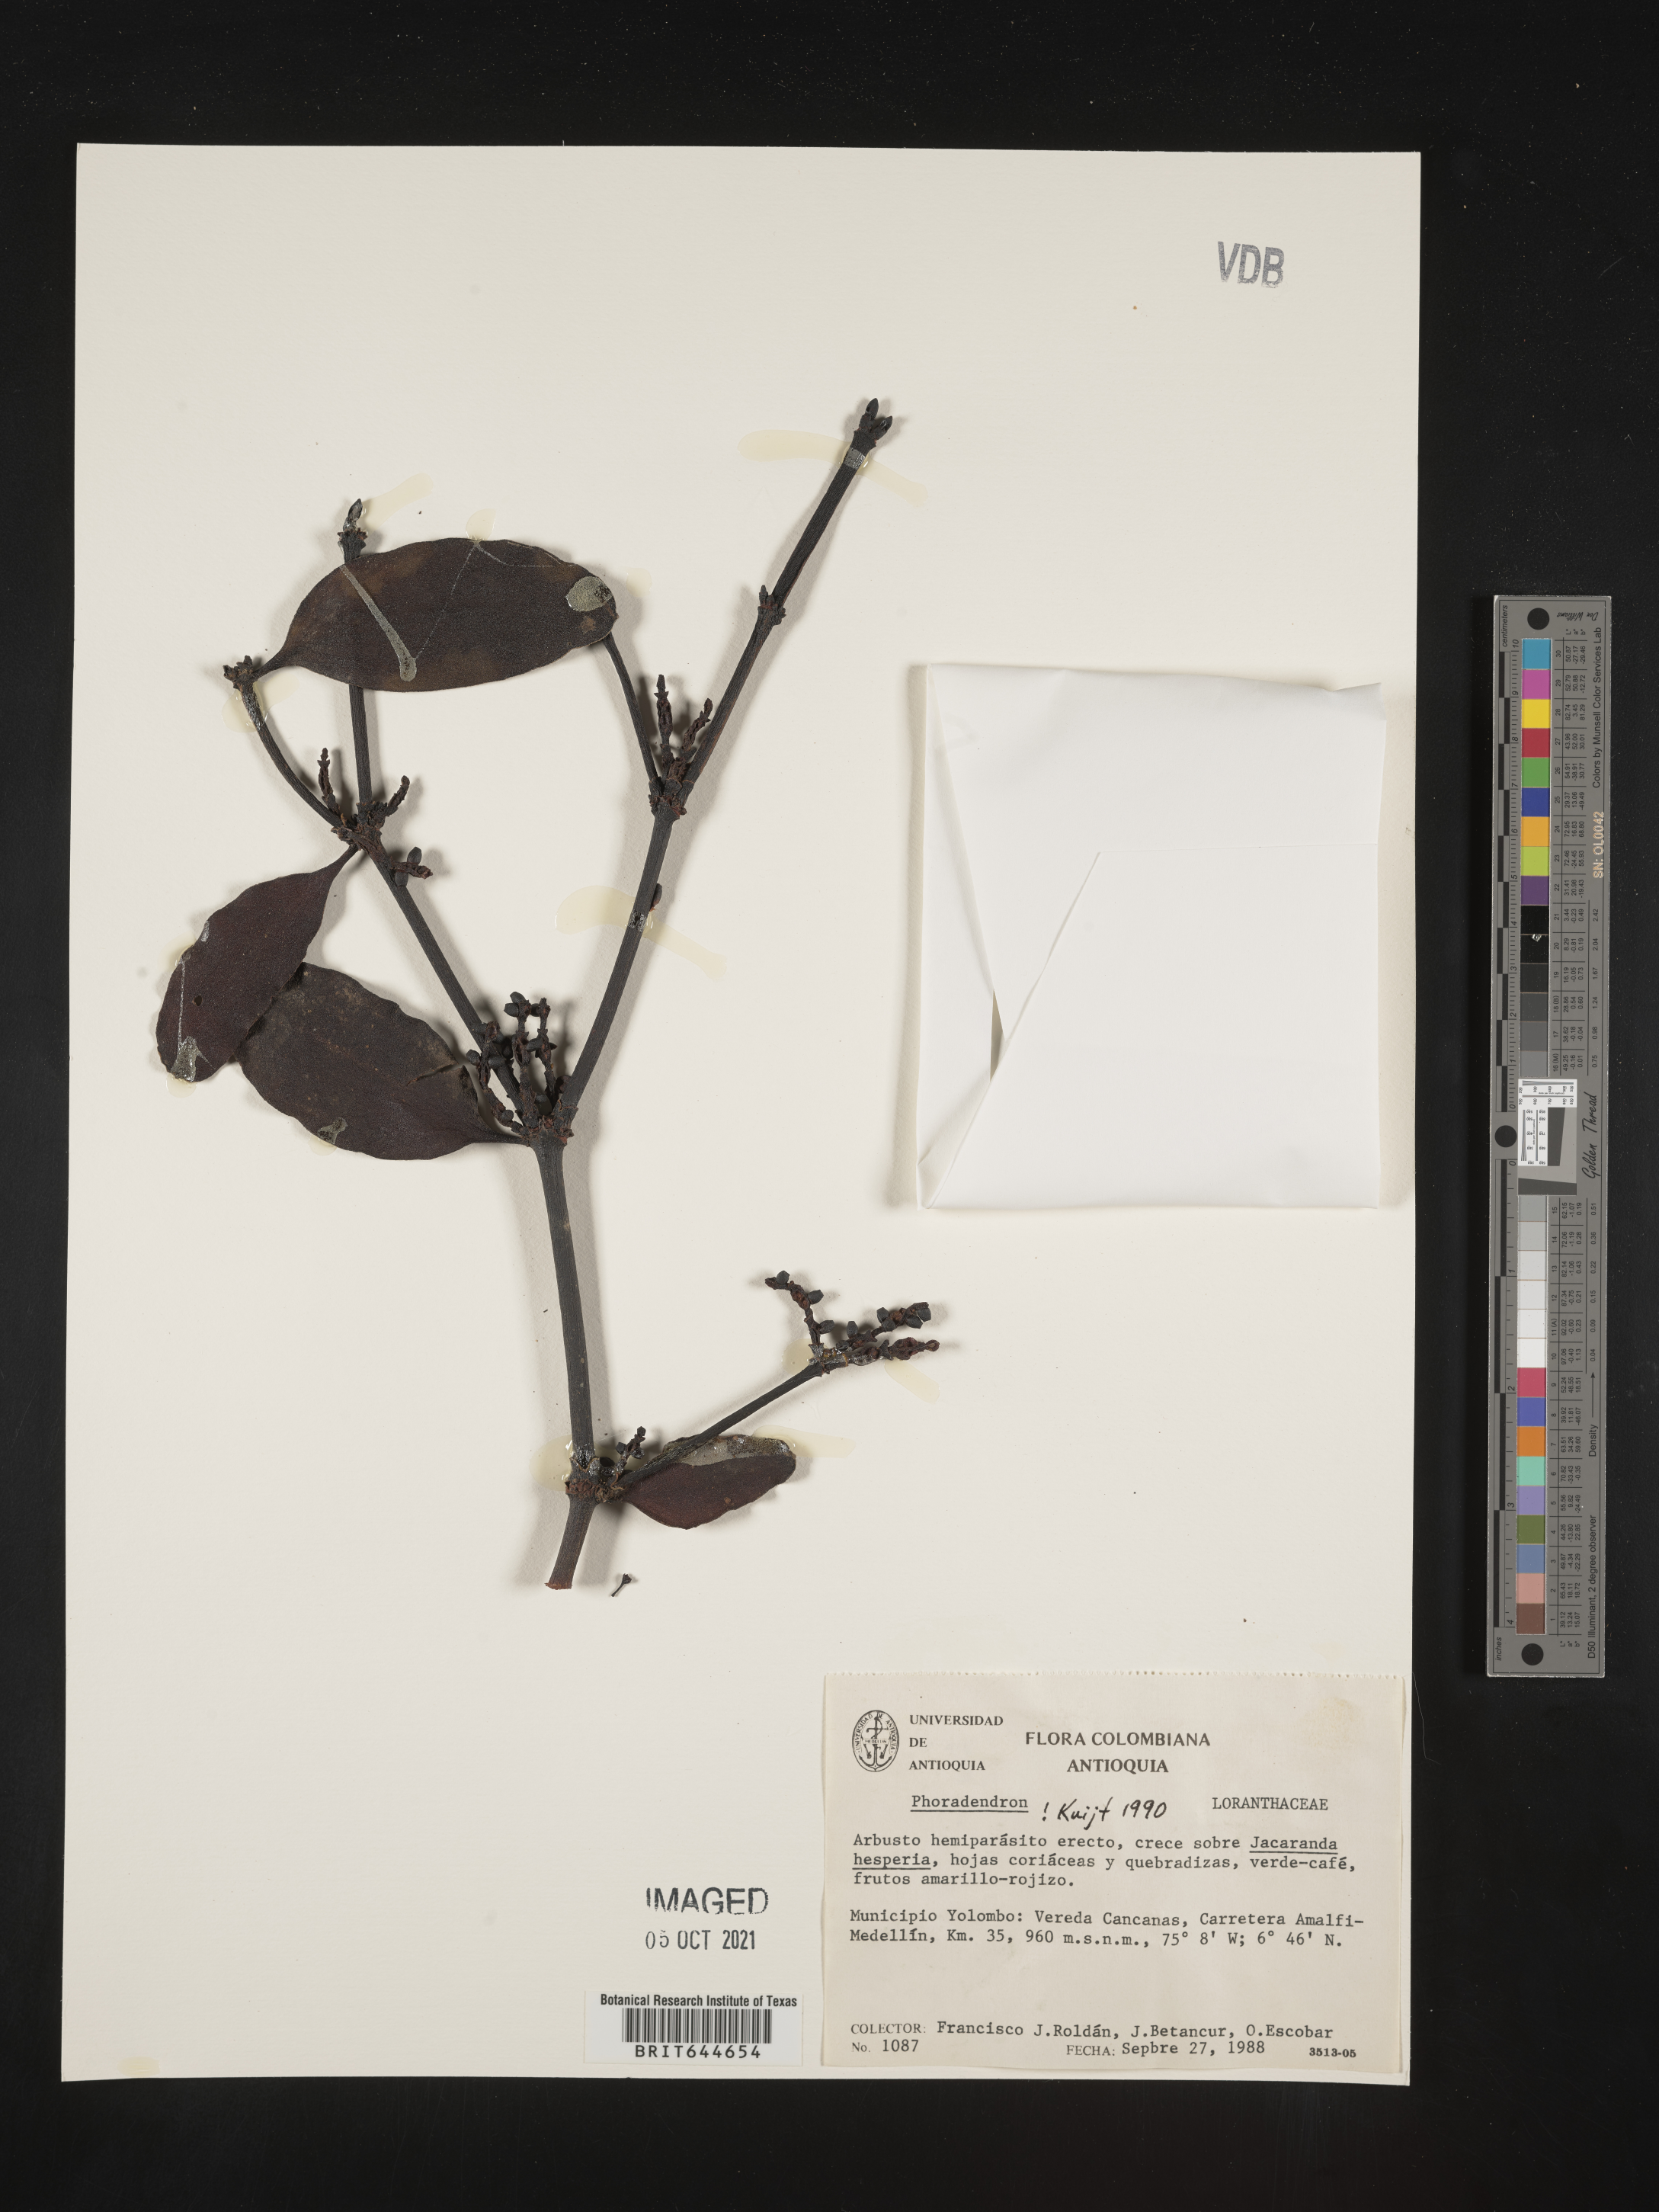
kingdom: Plantae
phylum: Tracheophyta
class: Magnoliopsida
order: Santalales
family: Viscaceae
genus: Phoradendron
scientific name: Phoradendron
